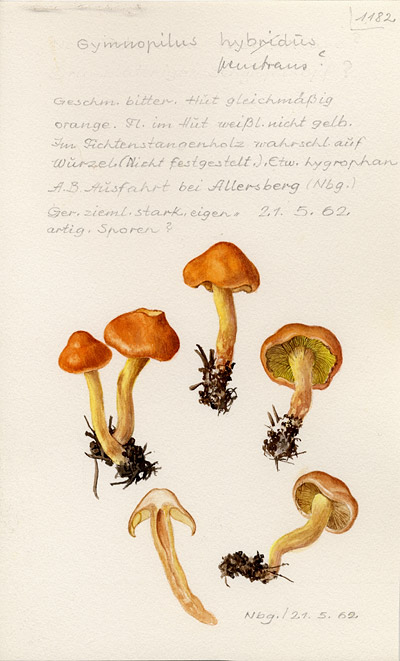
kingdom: Fungi
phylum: Basidiomycota
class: Agaricomycetes
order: Agaricales
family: Hymenogastraceae
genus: Gymnopilus
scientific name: Gymnopilus penetrans
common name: Common rustgill
